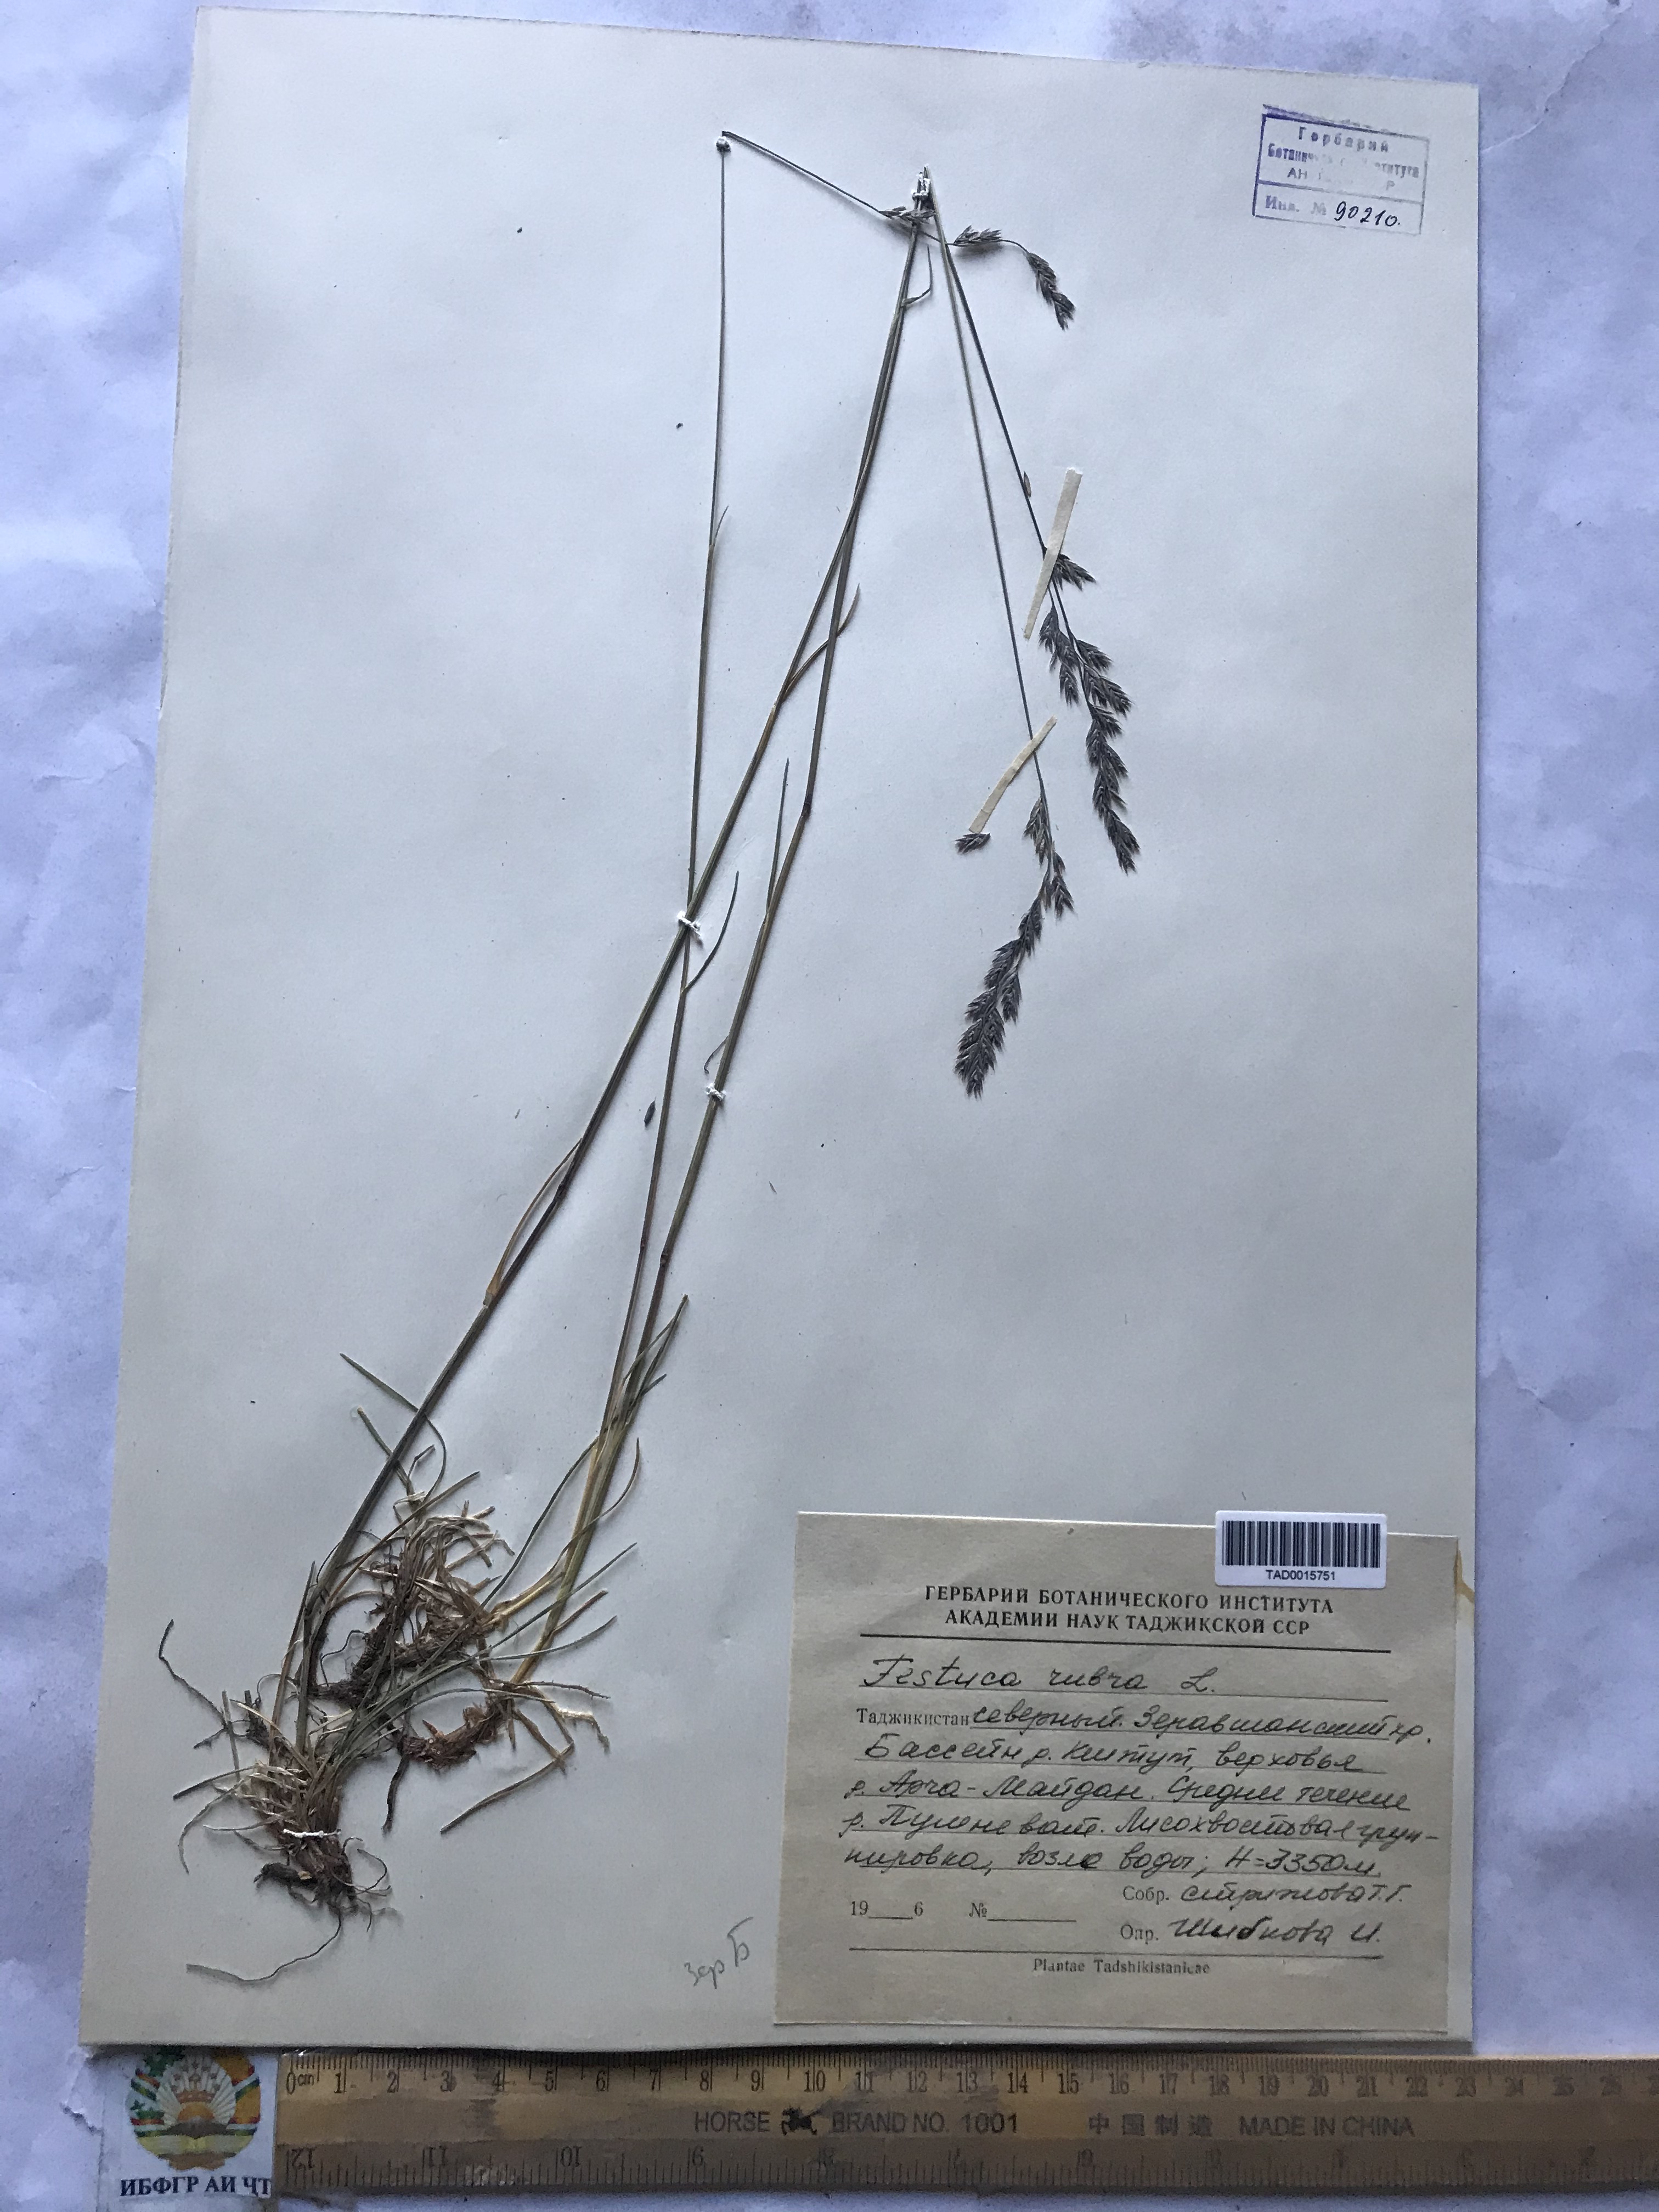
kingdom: Plantae
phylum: Tracheophyta
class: Liliopsida
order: Poales
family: Poaceae
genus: Festuca
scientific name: Festuca rubra
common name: Red fescue
